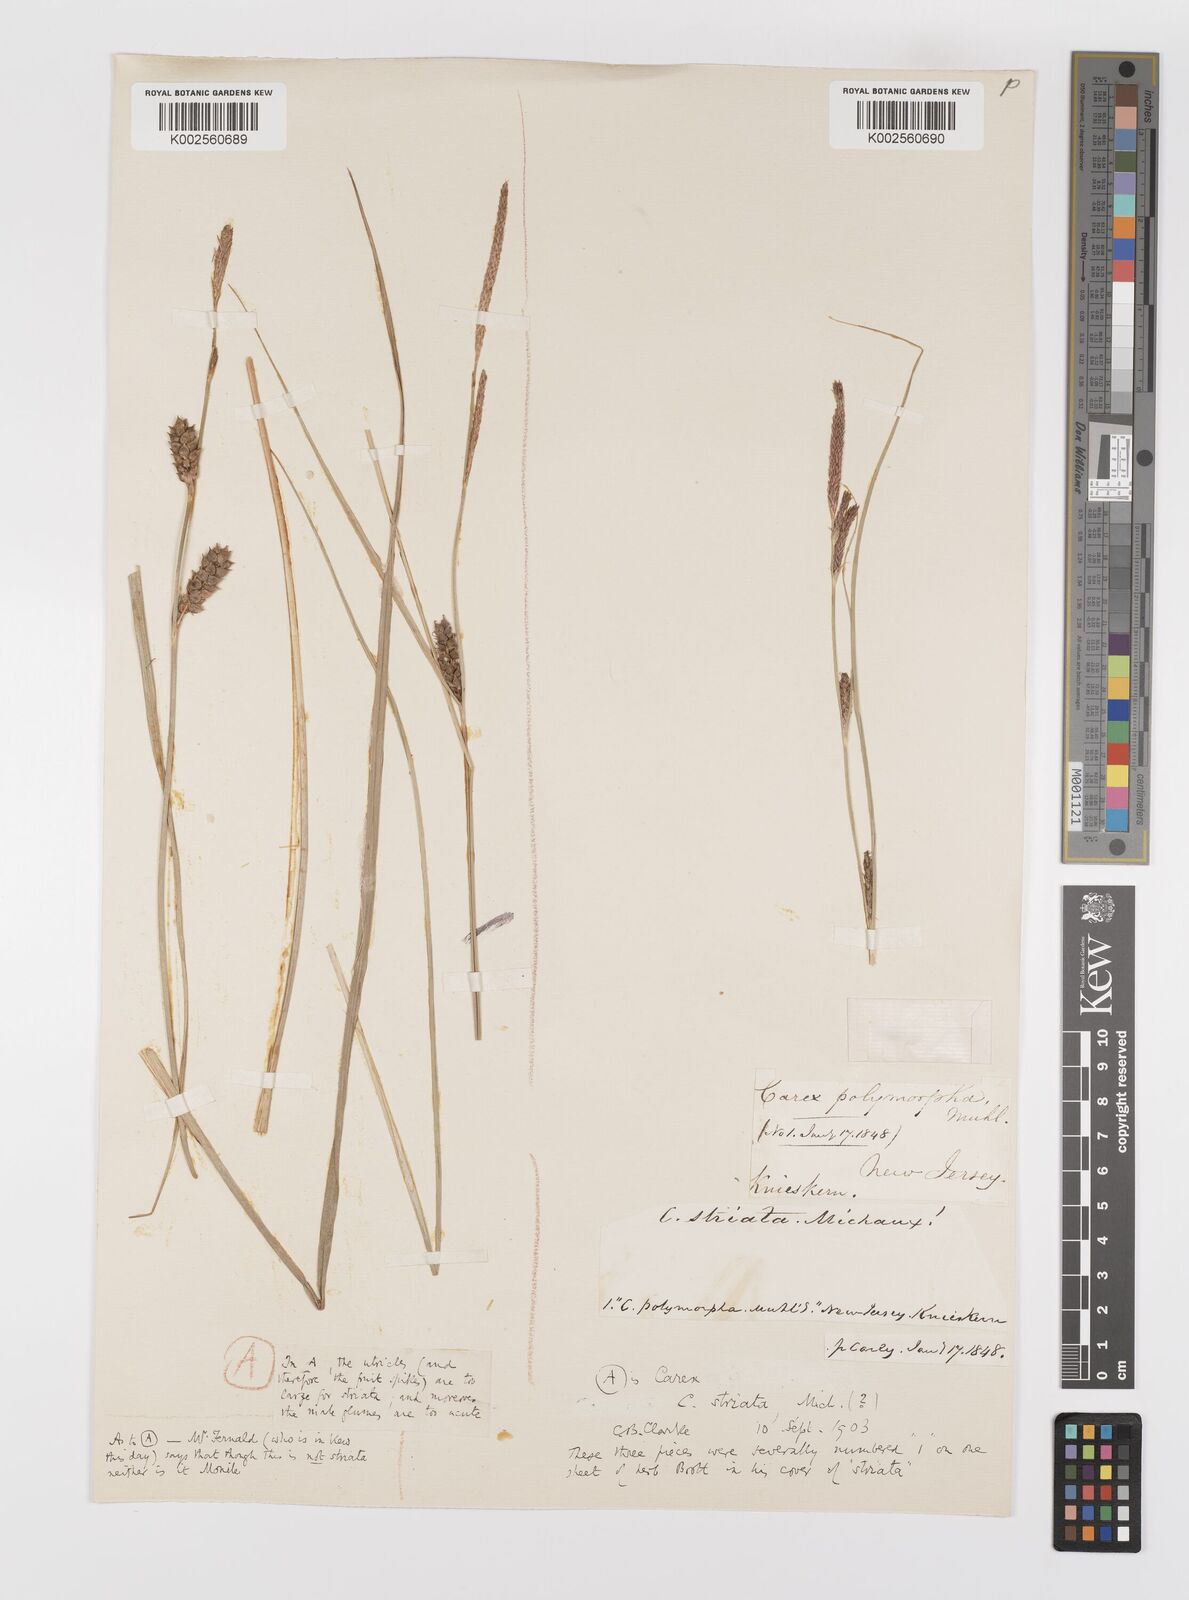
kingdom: Plantae
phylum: Tracheophyta
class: Liliopsida
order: Poales
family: Cyperaceae
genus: Carex
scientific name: Carex striata
